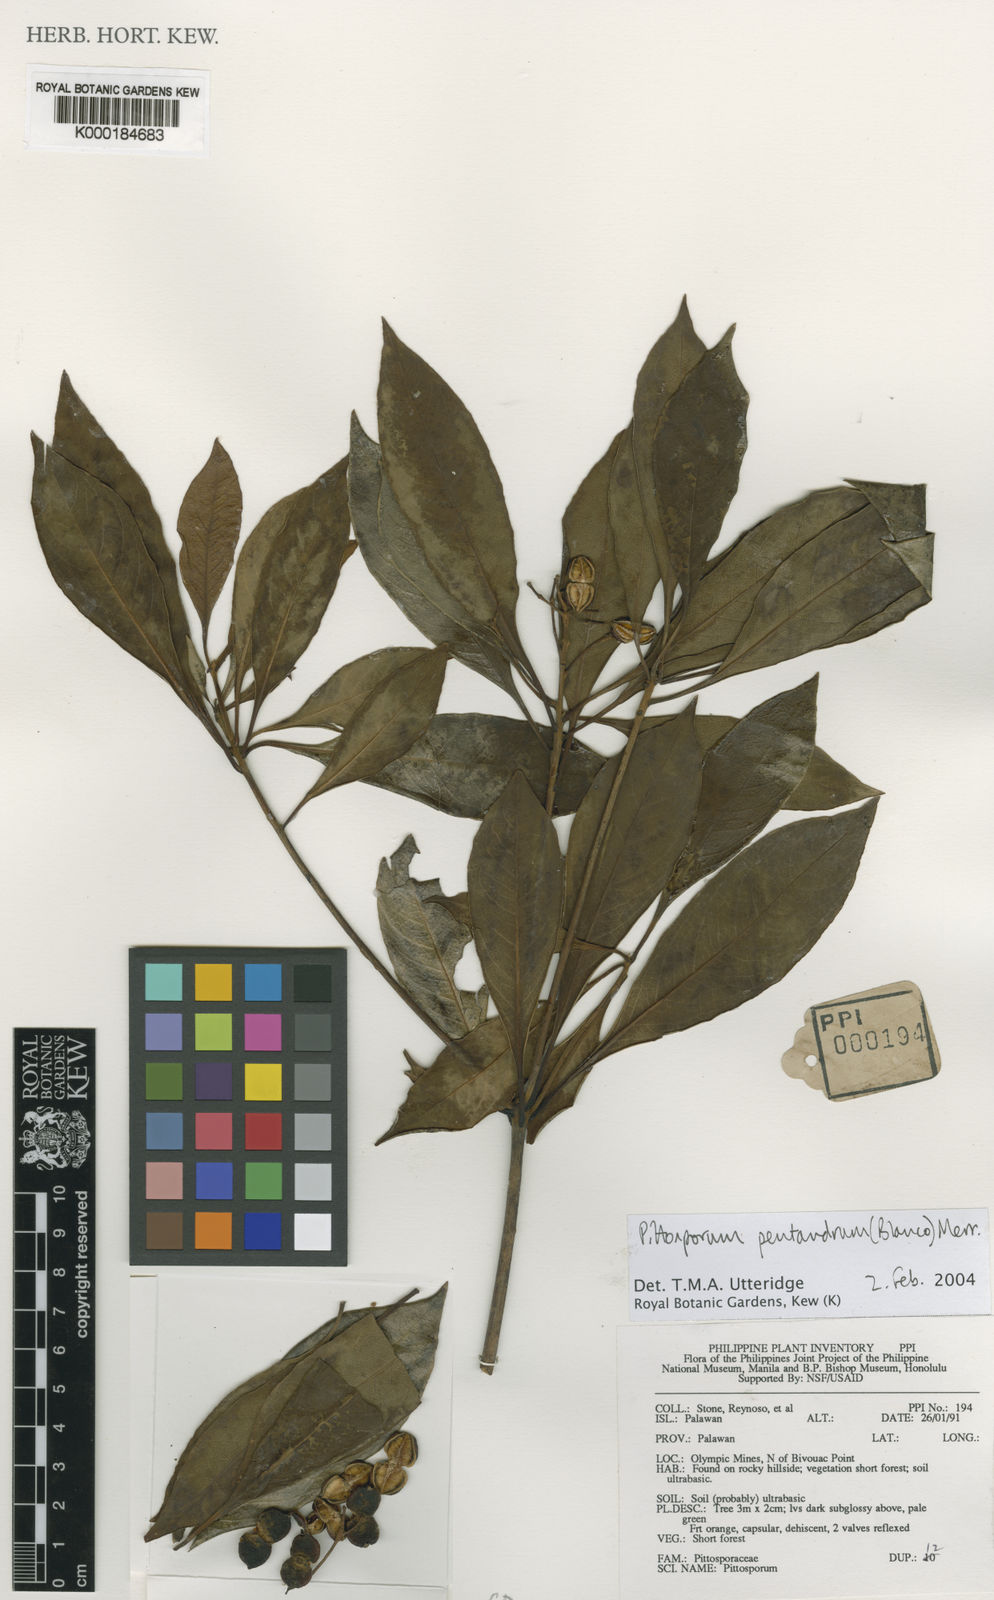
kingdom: Plantae
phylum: Tracheophyta
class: Magnoliopsida
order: Apiales
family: Pittosporaceae
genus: Pittosporum
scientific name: Pittosporum pentandrum
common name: Taiwanese cheesewood
